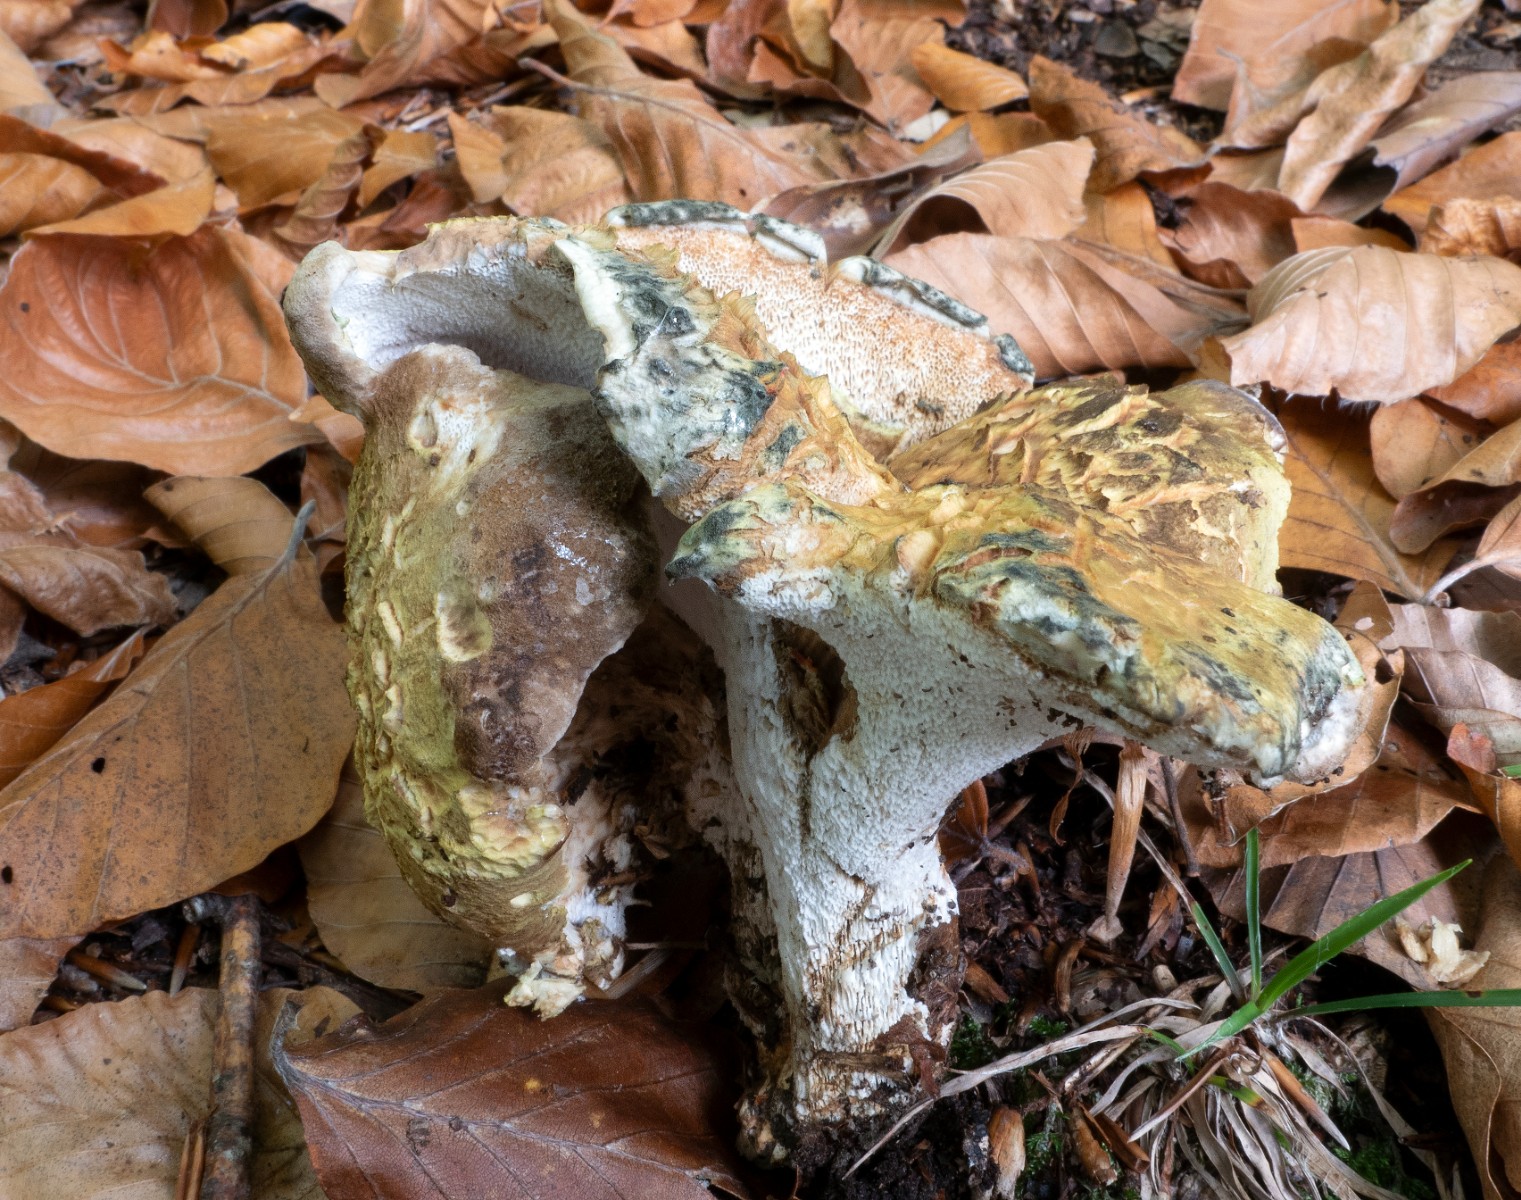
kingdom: Fungi
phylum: Basidiomycota
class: Agaricomycetes
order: Russulales
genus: Laeticutis
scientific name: Laeticutis cristata
